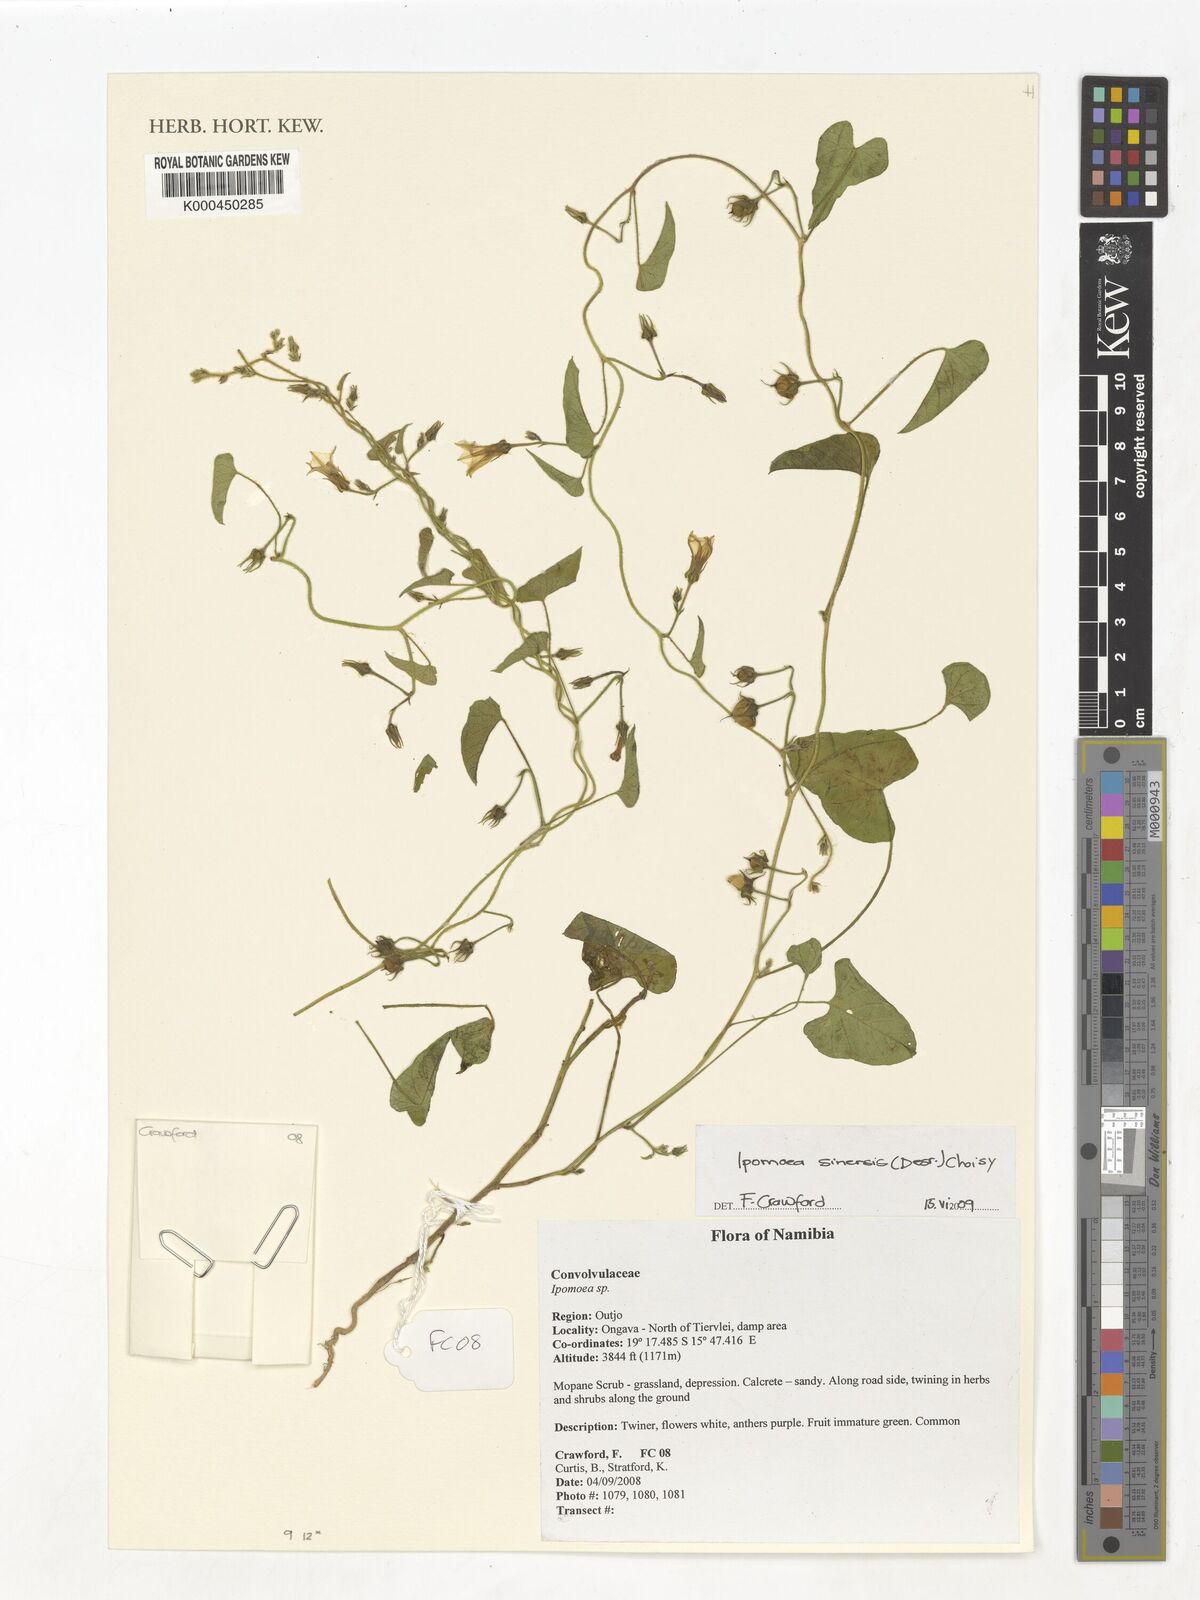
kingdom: Plantae
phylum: Tracheophyta
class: Magnoliopsida
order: Solanales
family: Convolvulaceae
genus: Ipomoea
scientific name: Ipomoea sinensis
